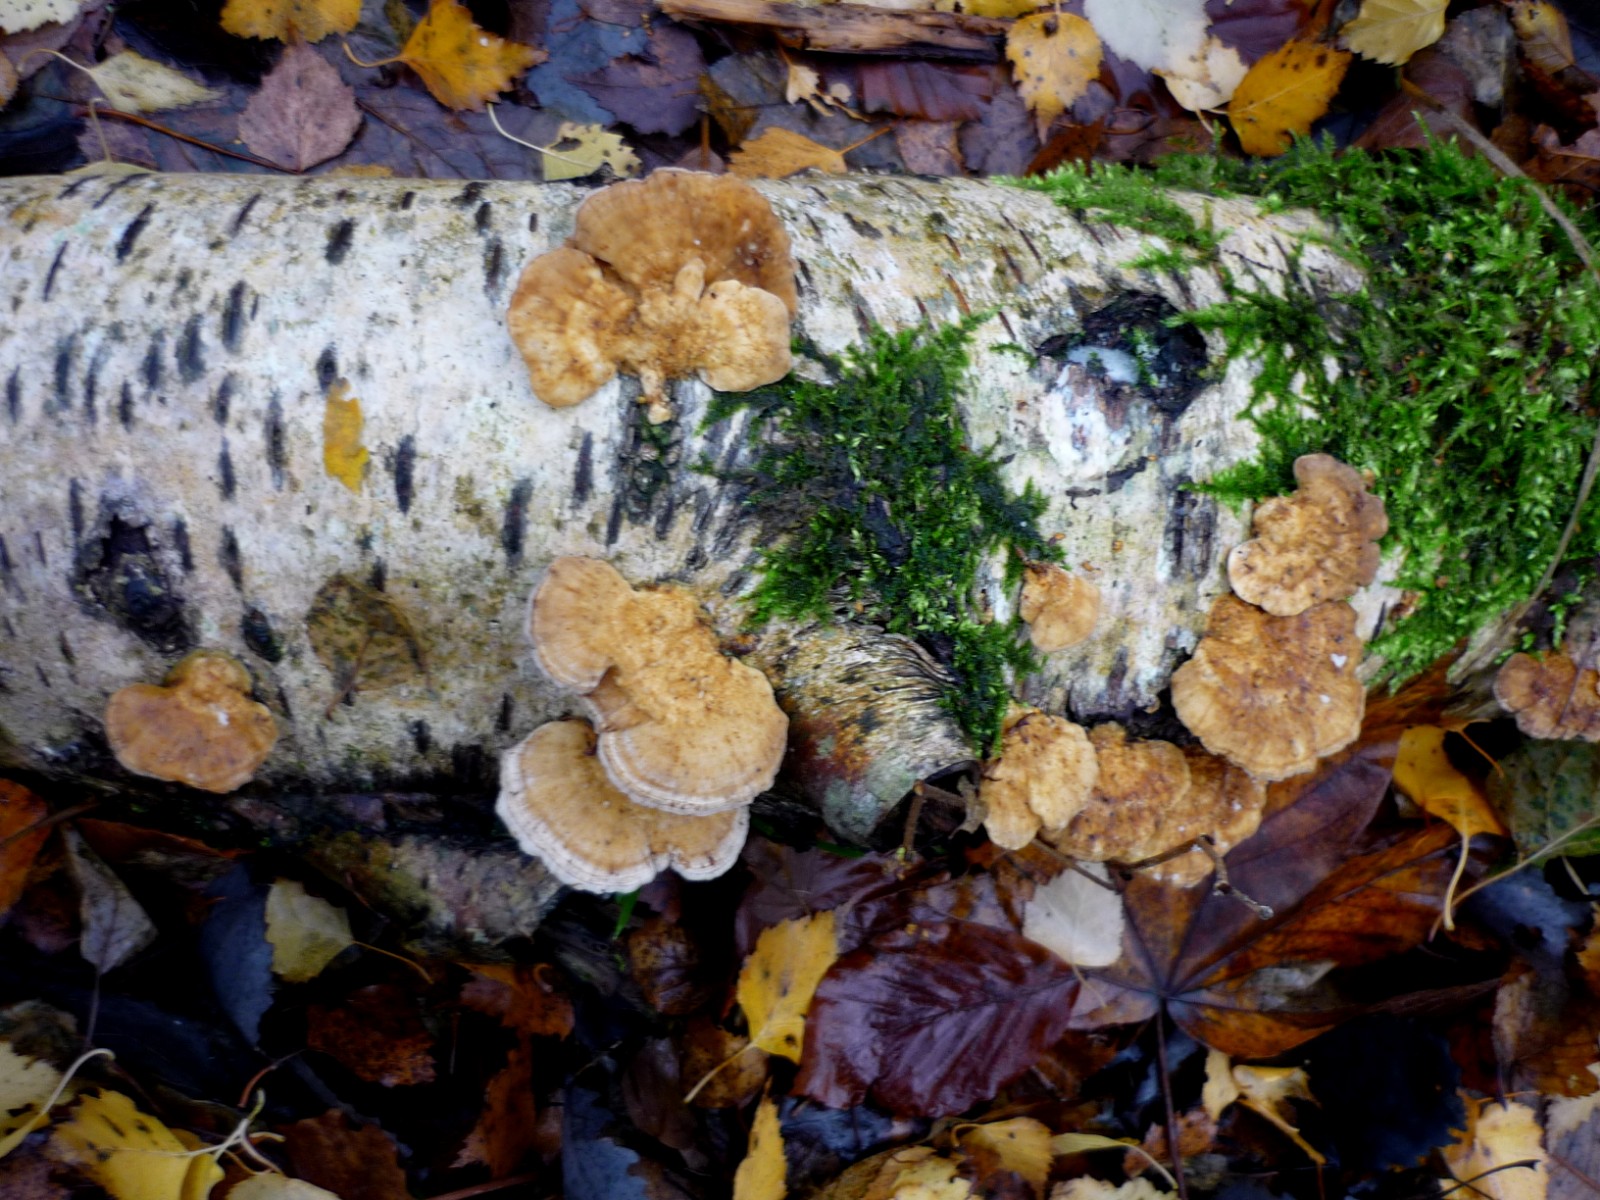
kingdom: Fungi
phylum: Basidiomycota
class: Agaricomycetes
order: Polyporales
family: Polyporaceae
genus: Trametes
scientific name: Trametes ochracea
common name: bæltet læderporesvamp
